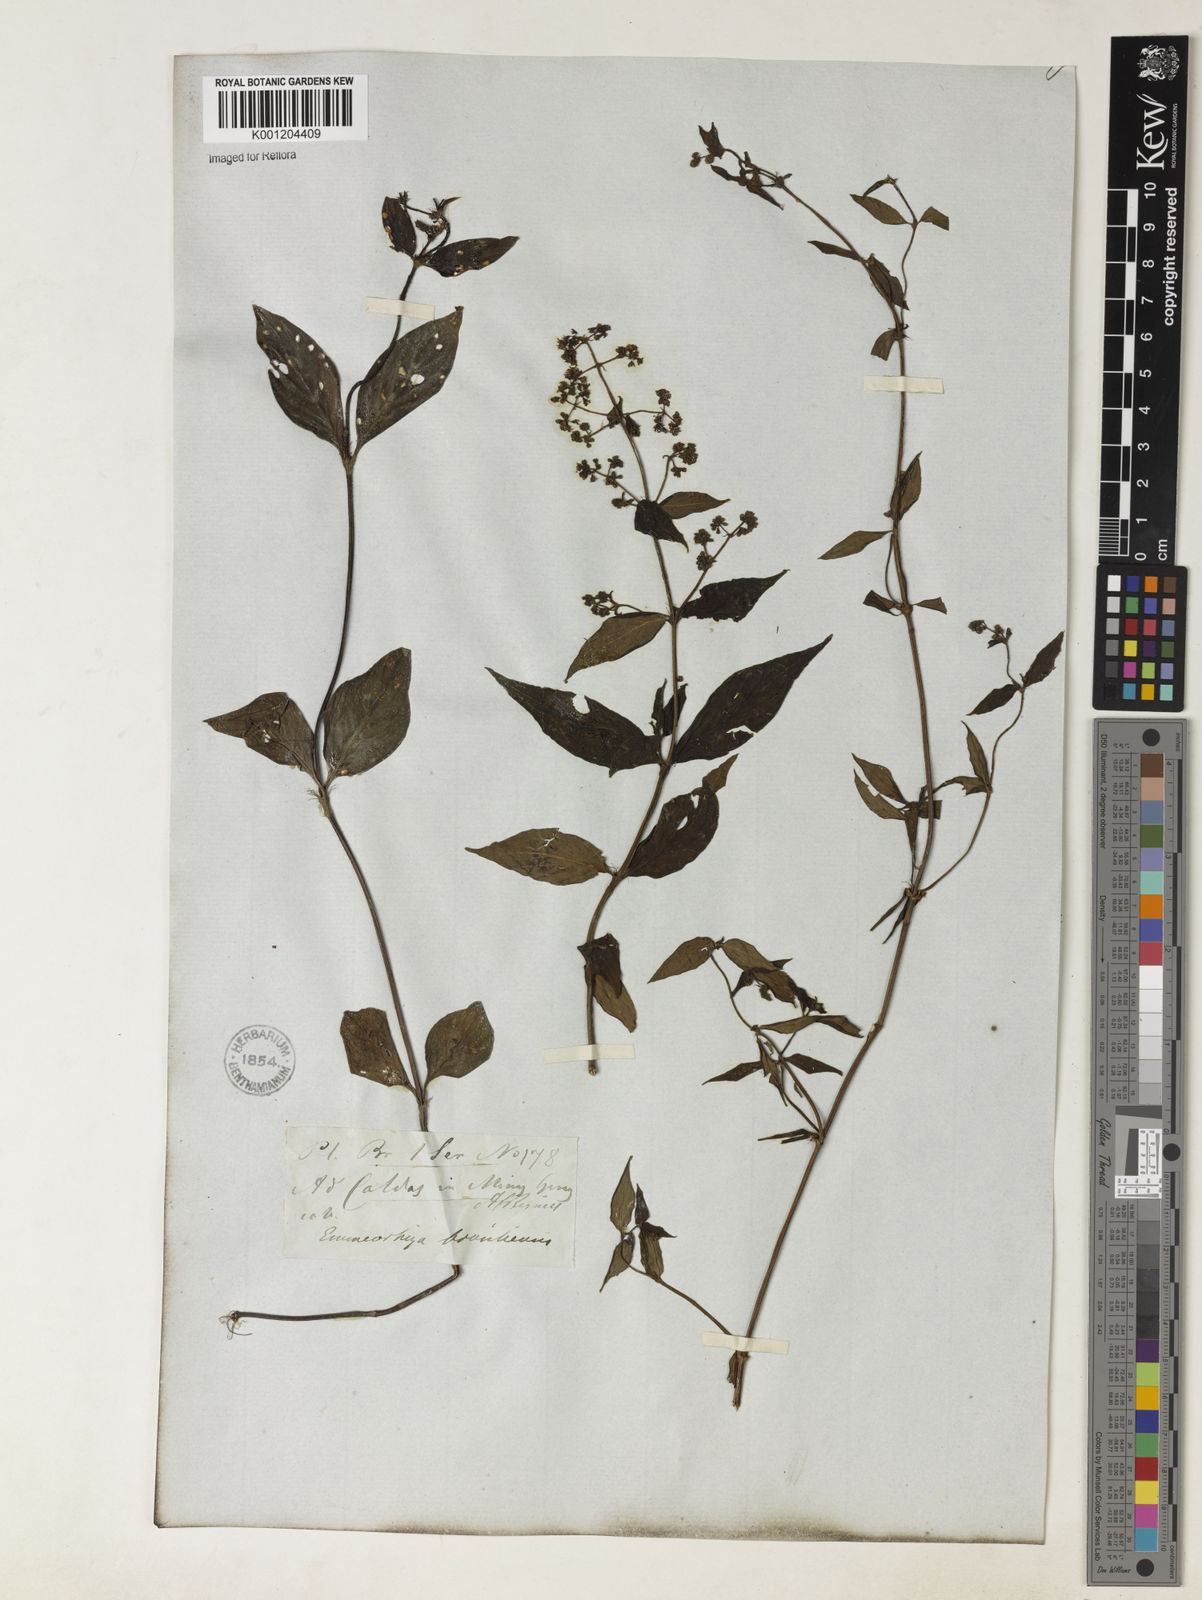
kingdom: Plantae
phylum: Tracheophyta
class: Magnoliopsida
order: Gentianales
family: Rubiaceae
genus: Emmeorhiza
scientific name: Emmeorhiza
